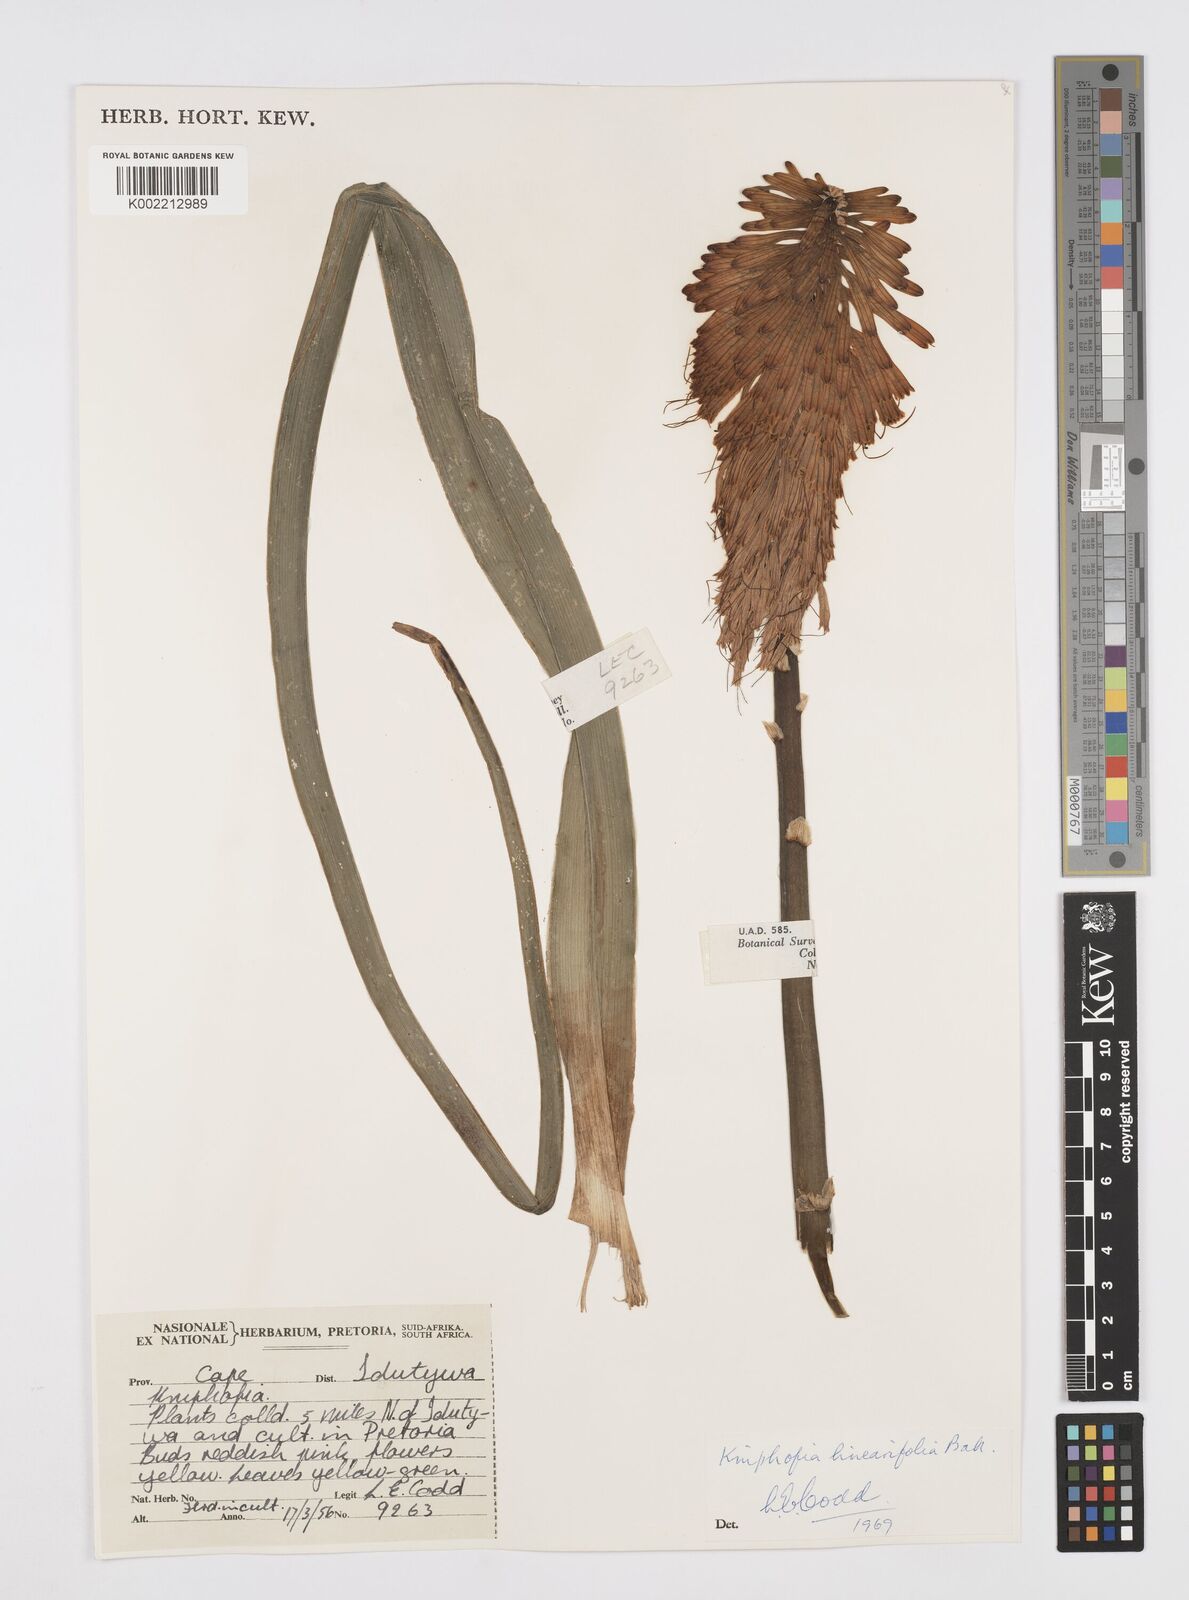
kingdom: Plantae
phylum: Tracheophyta
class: Liliopsida
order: Asparagales
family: Asphodelaceae
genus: Kniphofia
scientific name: Kniphofia linearifolia
